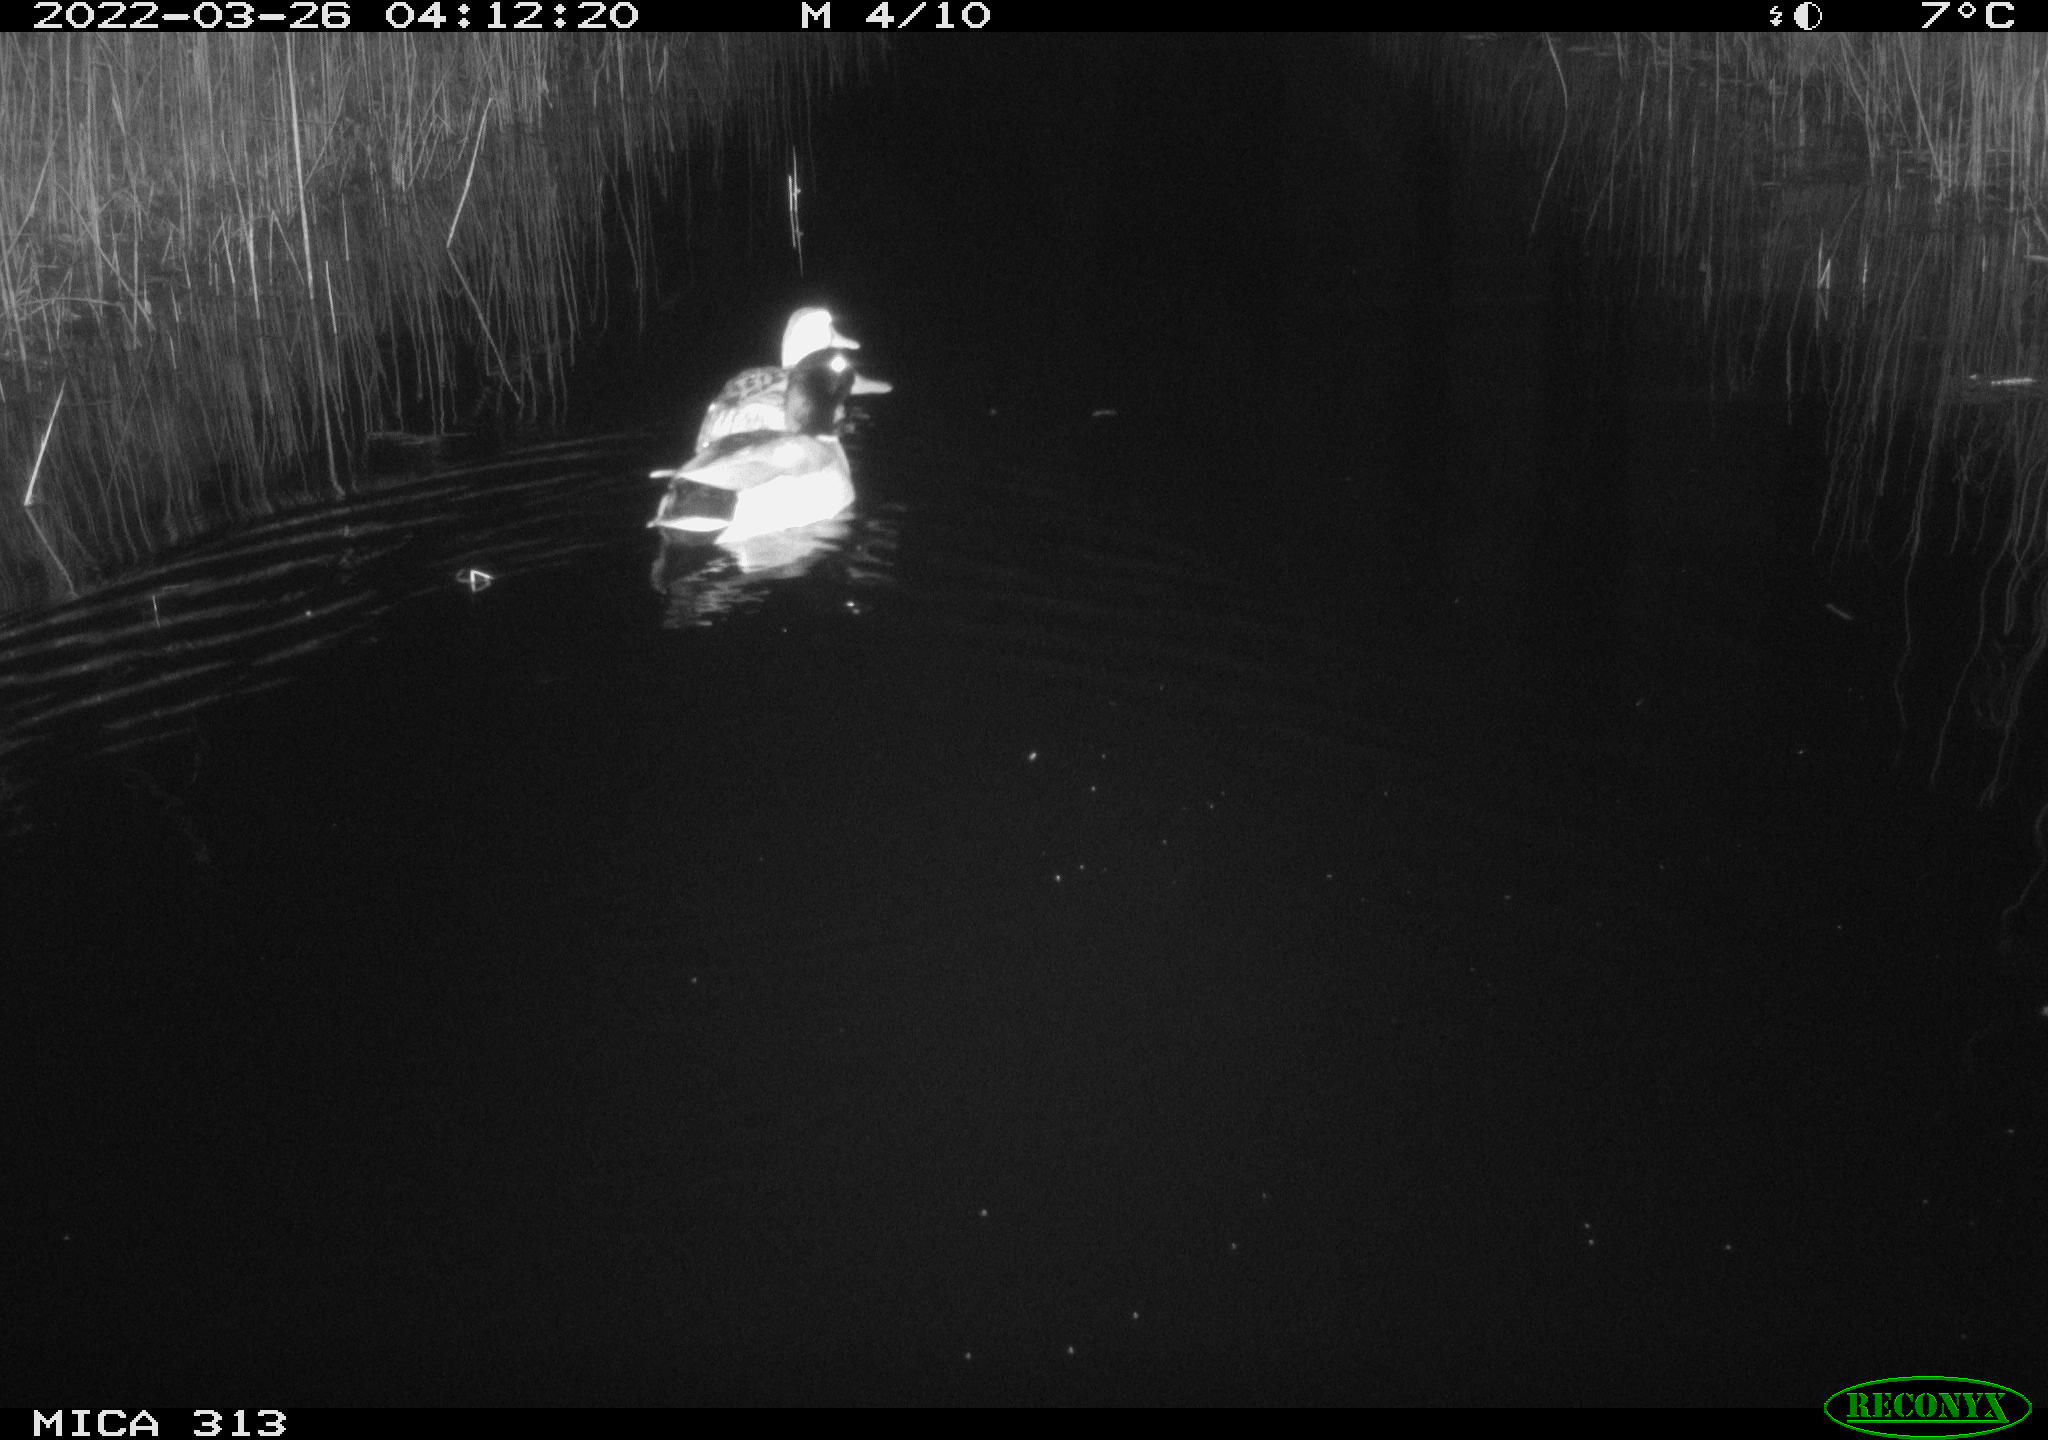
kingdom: Animalia
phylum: Chordata
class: Aves
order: Anseriformes
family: Anatidae
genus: Anas
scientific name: Anas platyrhynchos
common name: Mallard
